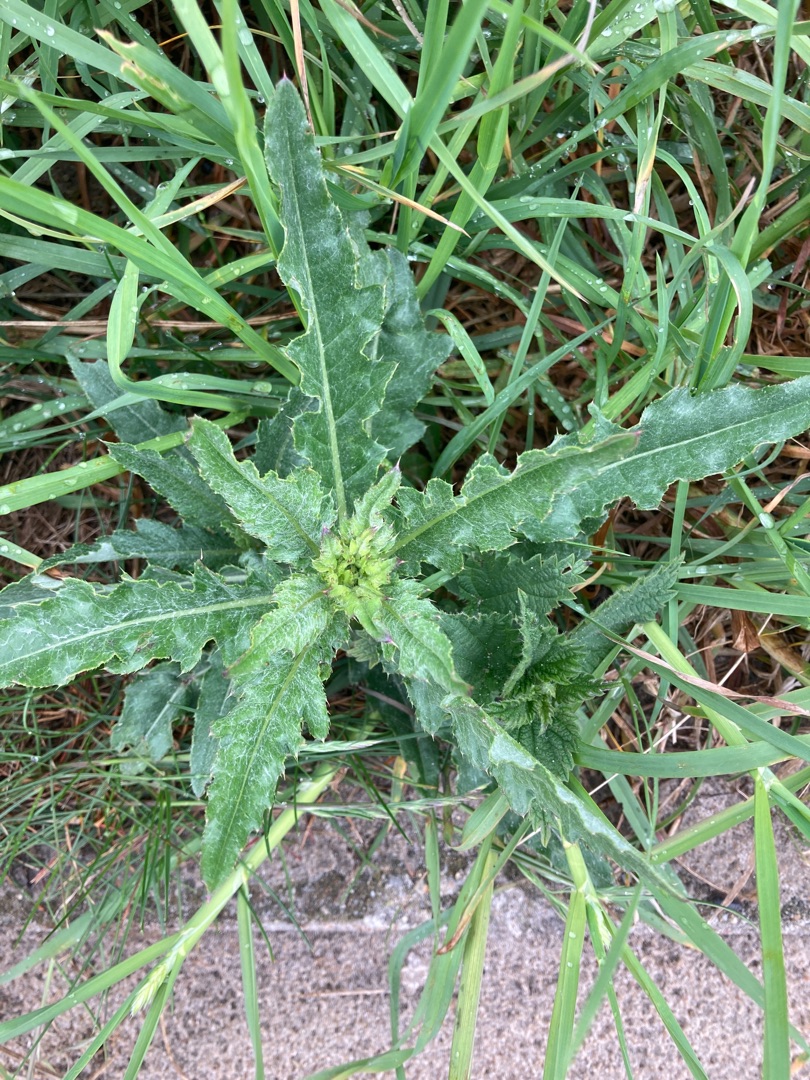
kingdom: Plantae
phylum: Tracheophyta
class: Magnoliopsida
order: Asterales
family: Asteraceae
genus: Cirsium
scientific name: Cirsium arvense
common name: Ager-tidsel
